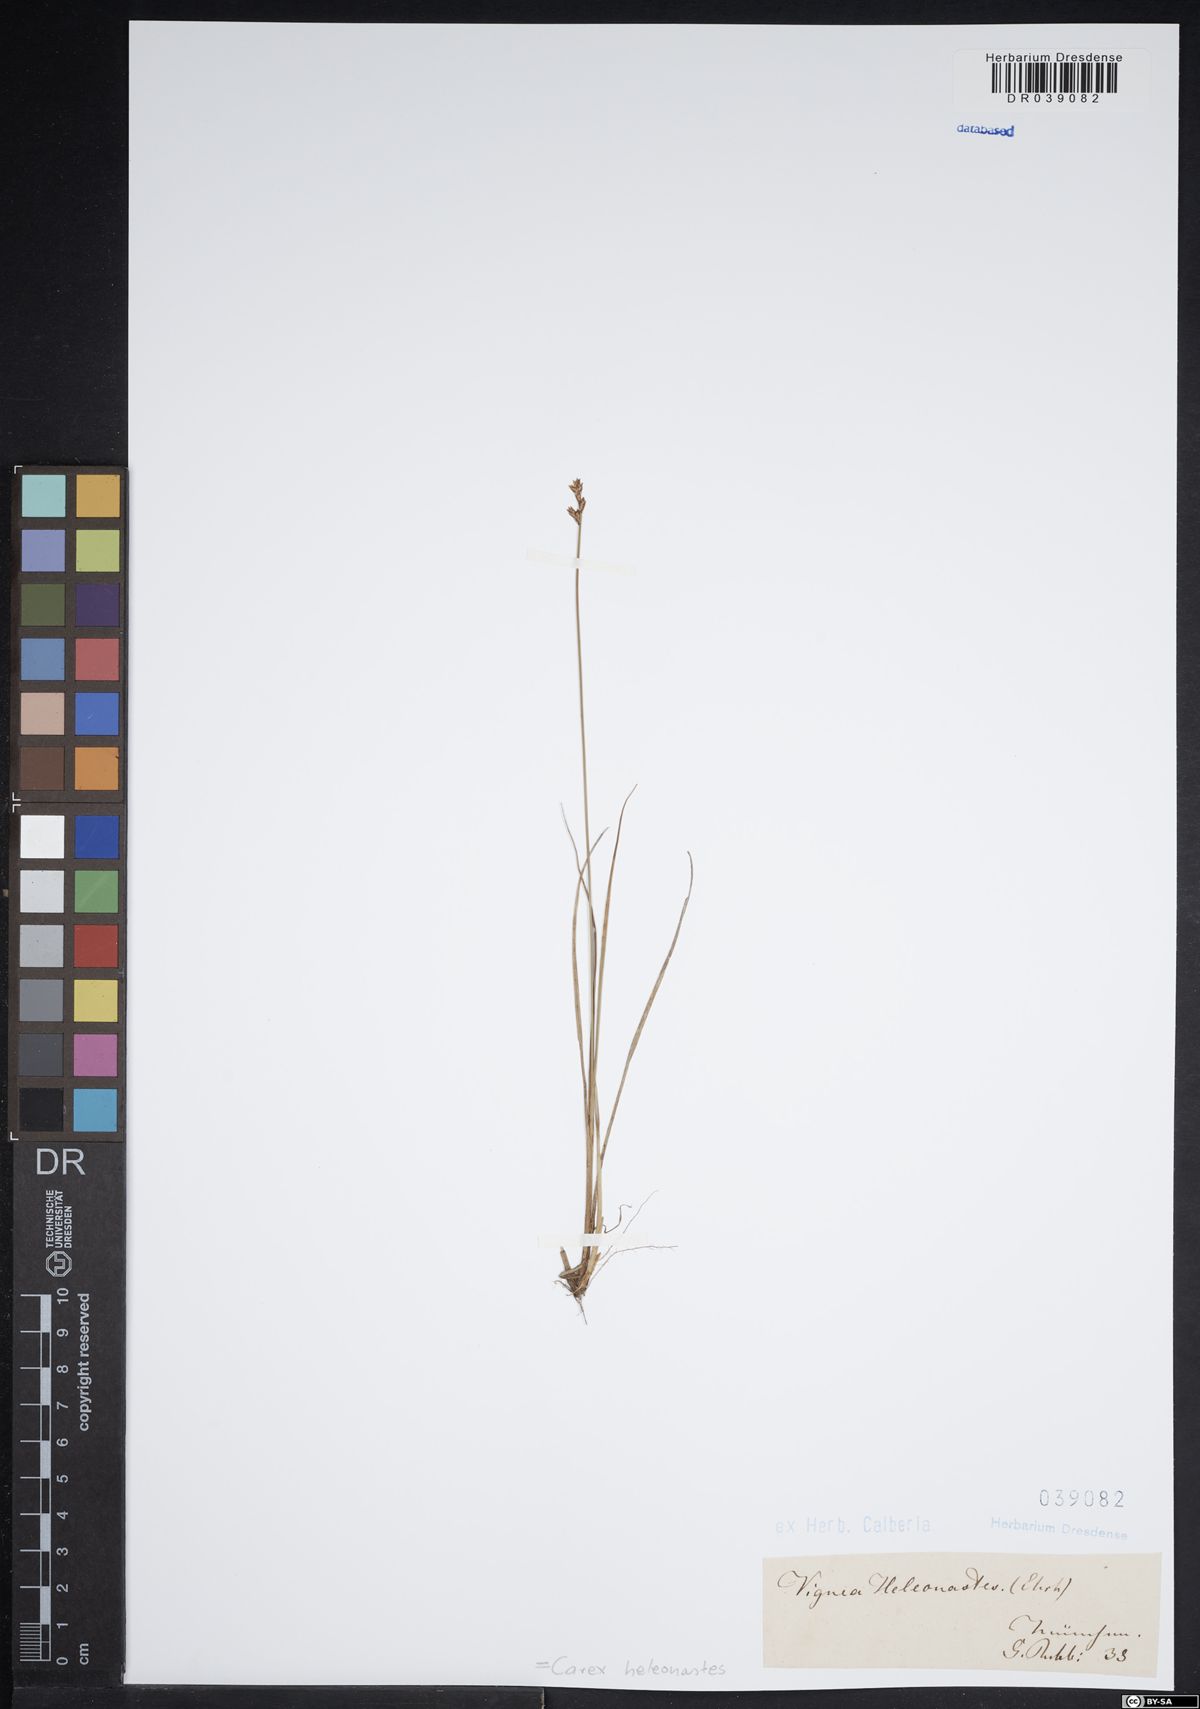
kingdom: Plantae
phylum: Tracheophyta
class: Liliopsida
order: Poales
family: Cyperaceae
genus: Carex
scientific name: Carex heleonastes
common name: Hudson bay sedge
